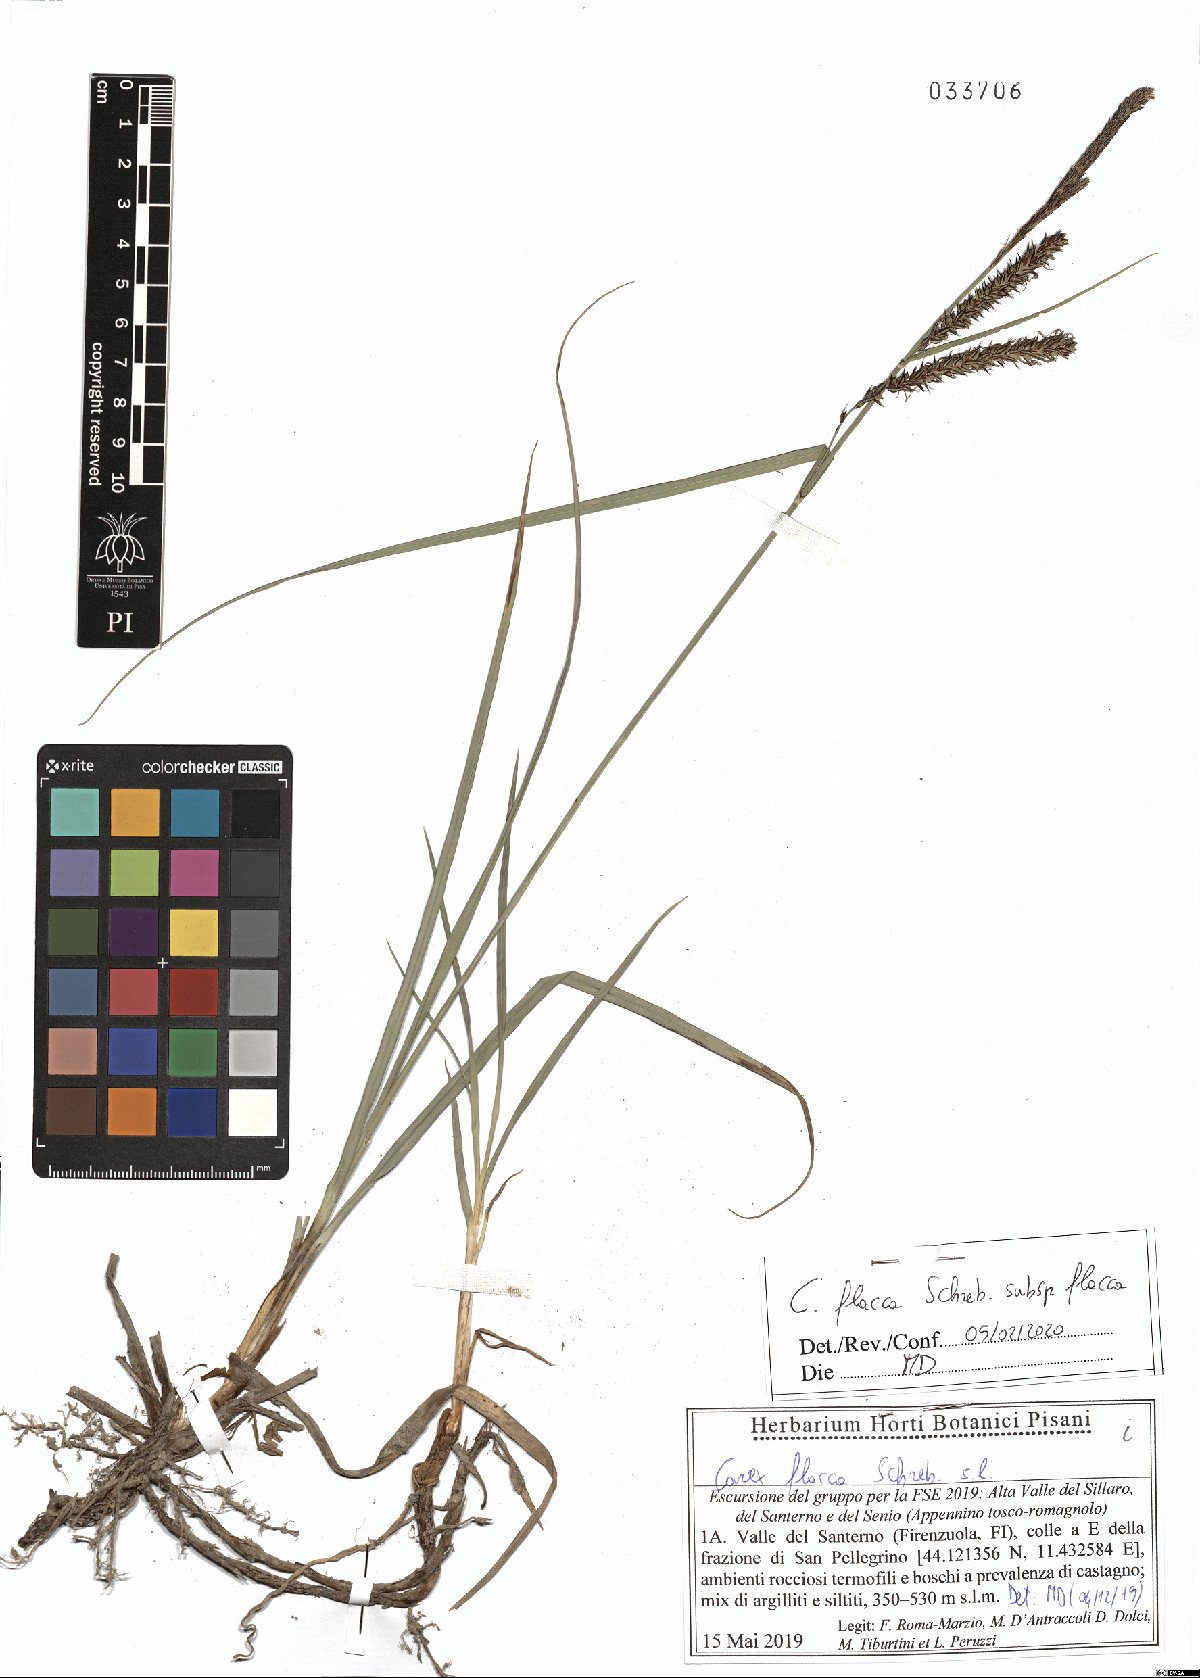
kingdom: Plantae
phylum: Tracheophyta
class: Liliopsida
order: Poales
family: Cyperaceae
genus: Carex
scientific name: Carex flacca
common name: Glaucous sedge
